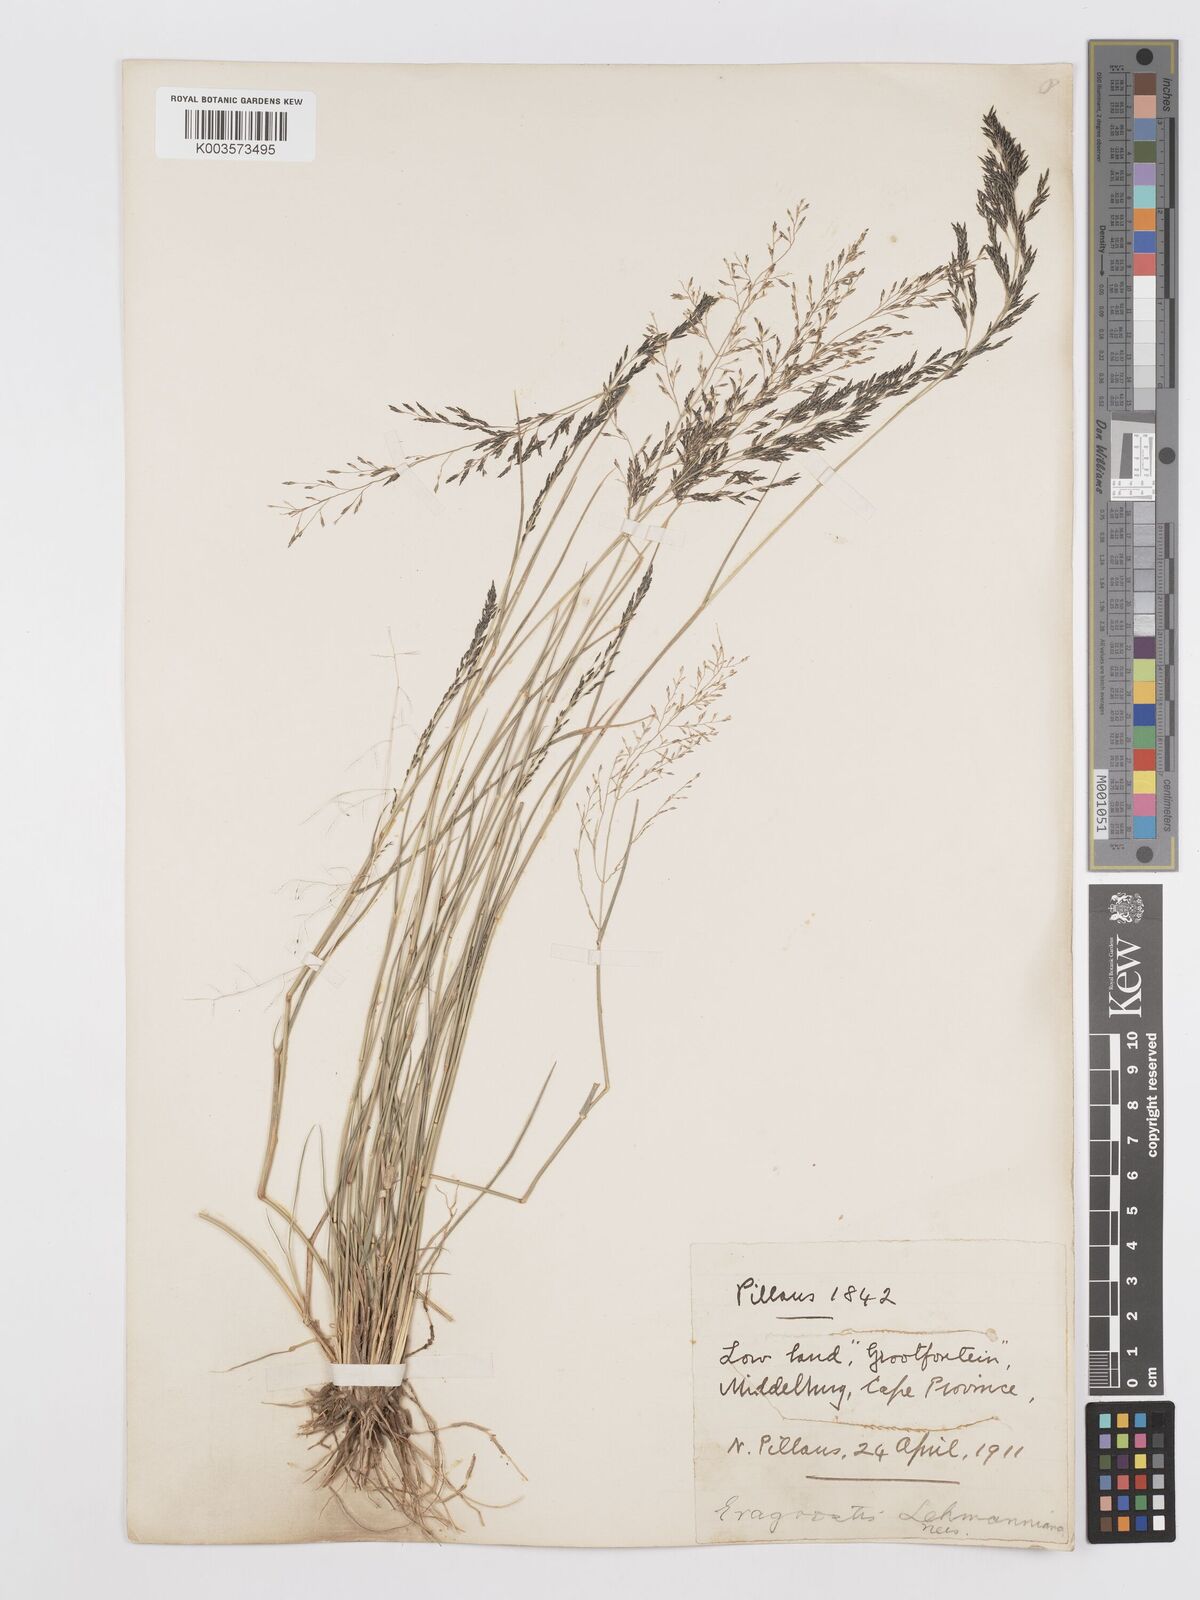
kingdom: Plantae
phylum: Tracheophyta
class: Liliopsida
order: Poales
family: Poaceae
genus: Eragrostis
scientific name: Eragrostis lehmanniana
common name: Lehmann lovegrass
